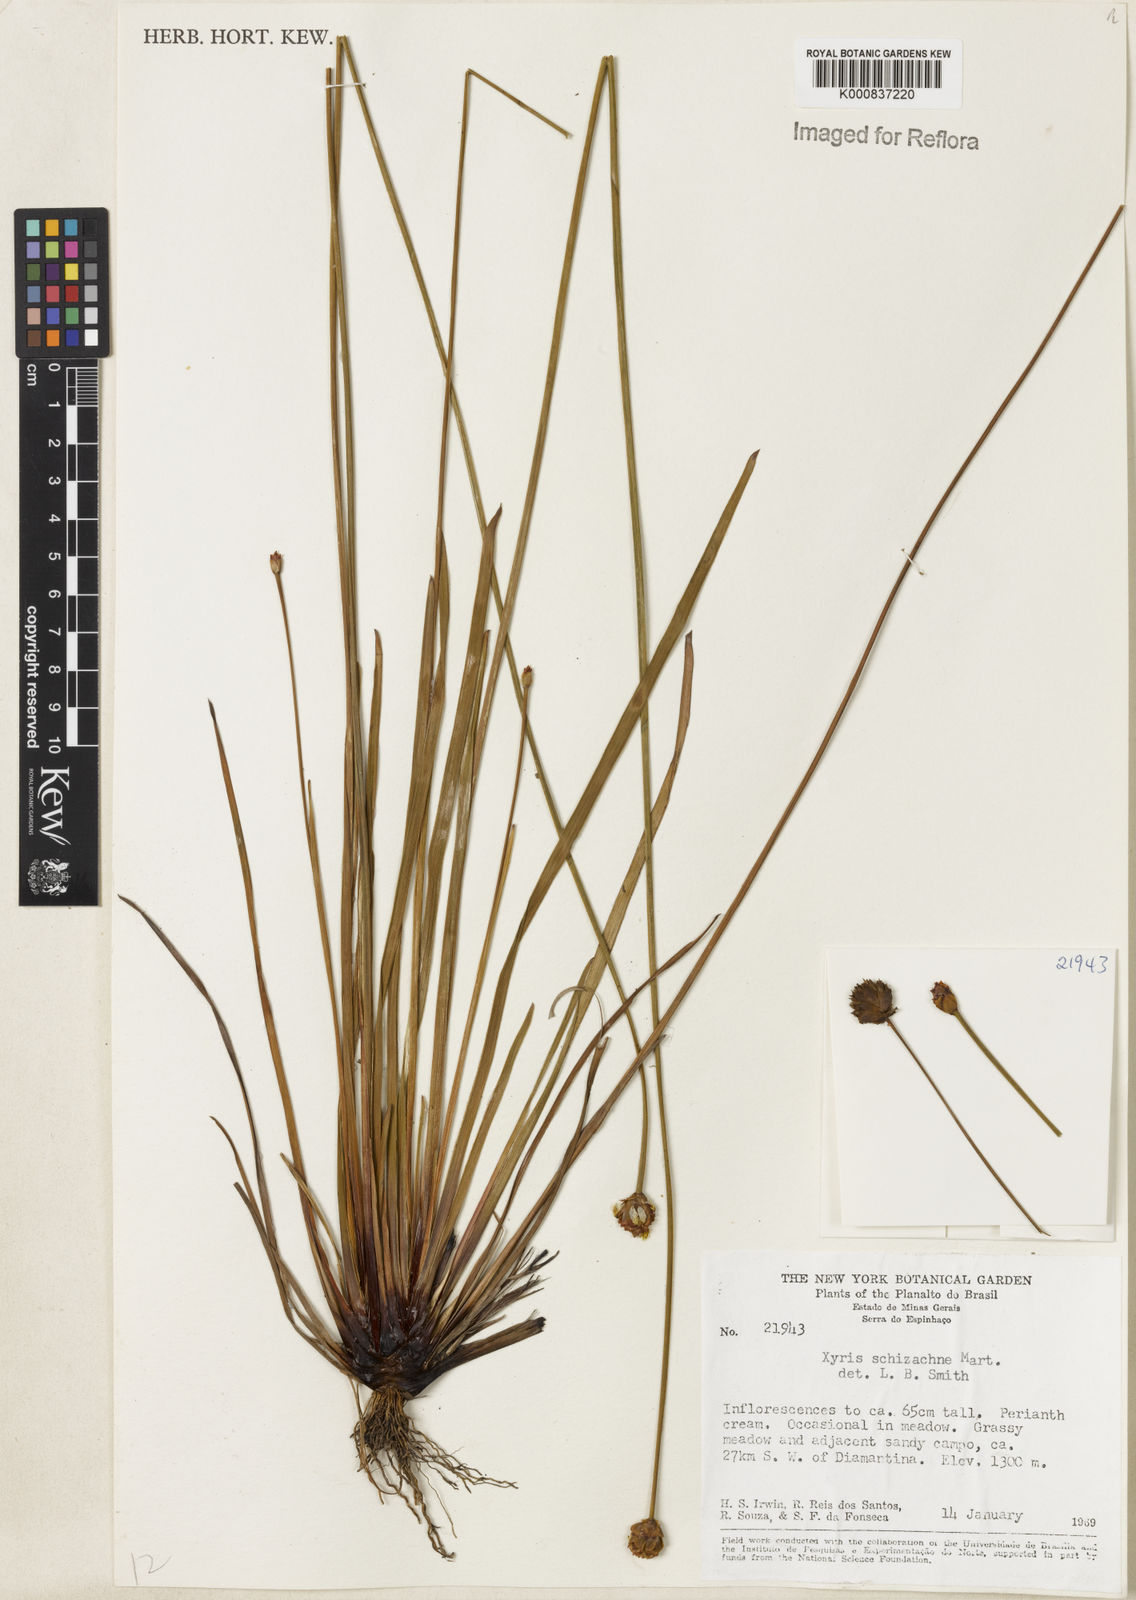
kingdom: Plantae
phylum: Tracheophyta
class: Liliopsida
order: Poales
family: Xyridaceae
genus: Xyris
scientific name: Xyris schizachne
